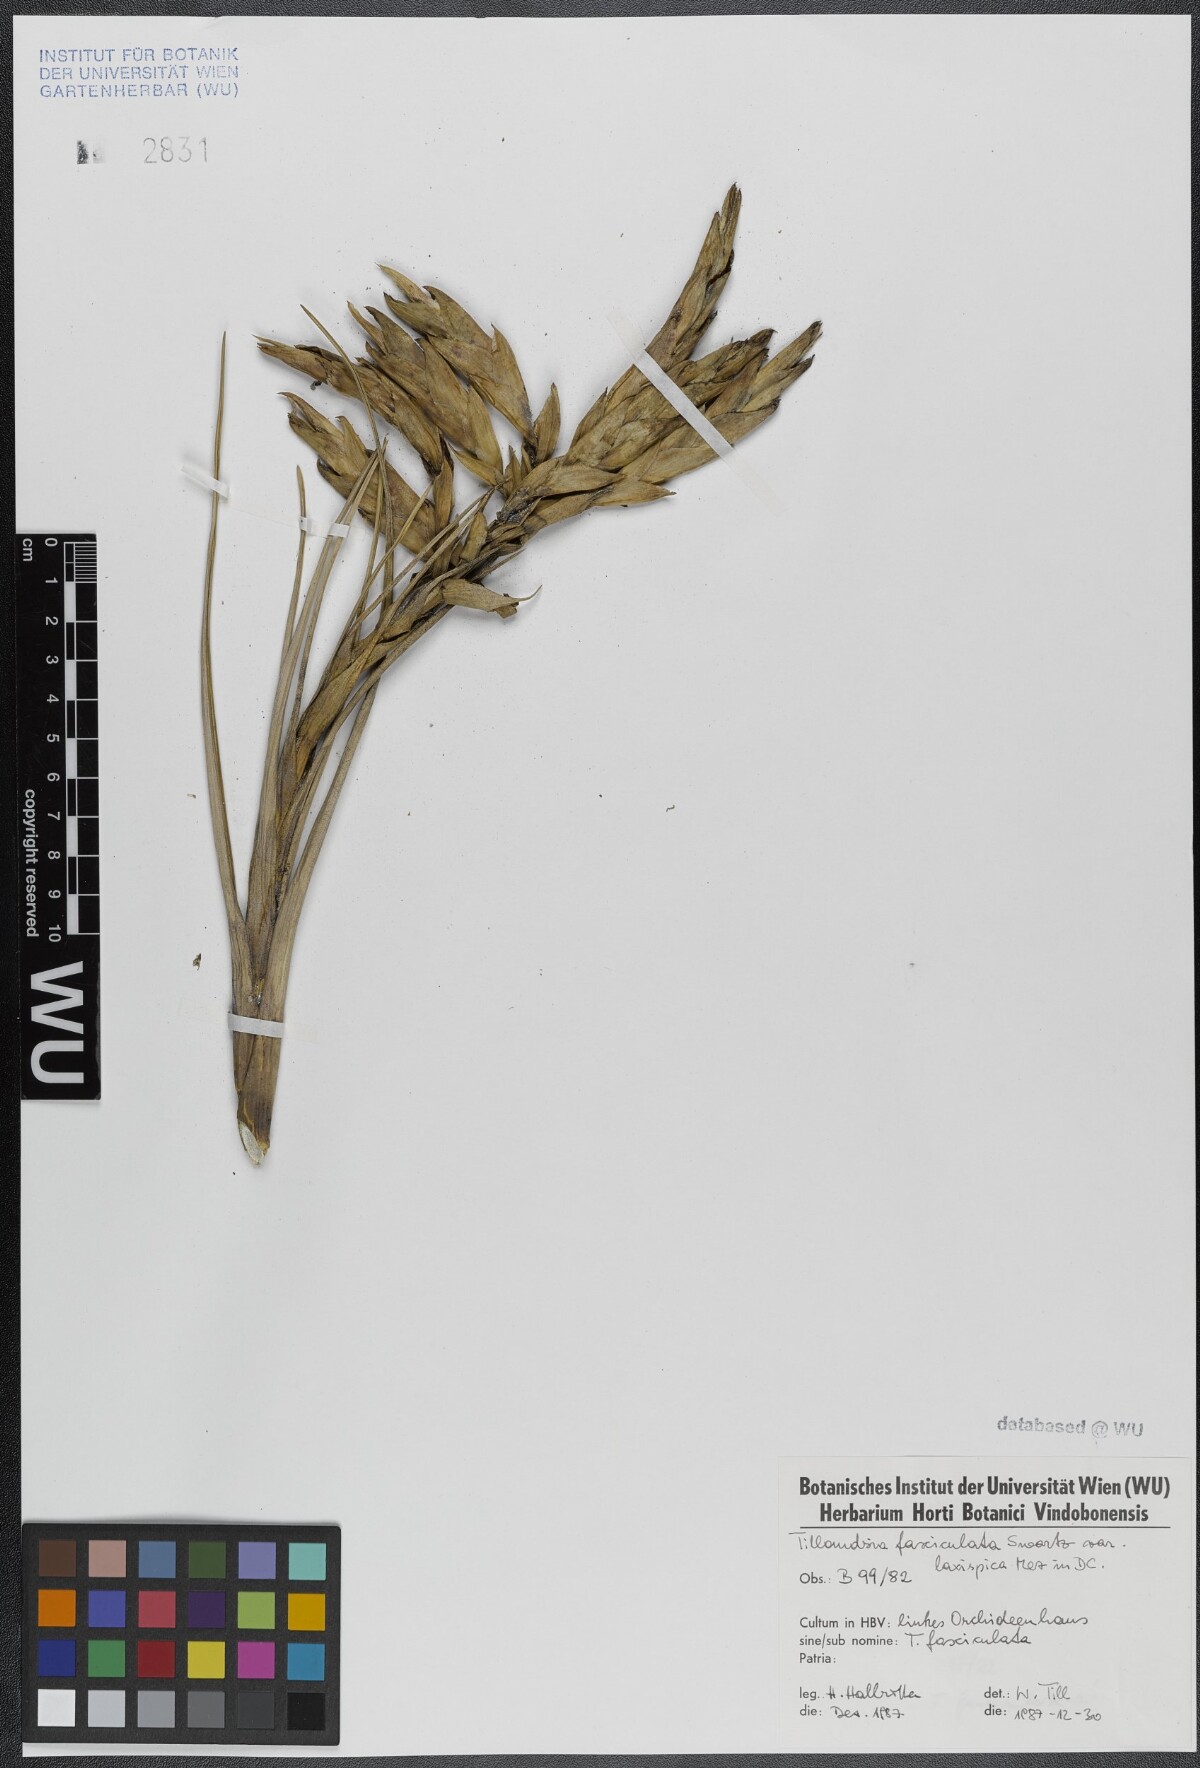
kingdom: Plantae
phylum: Tracheophyta
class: Liliopsida
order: Poales
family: Bromeliaceae
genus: Tillandsia
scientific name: Tillandsia fasciculata
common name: Giant airplant
